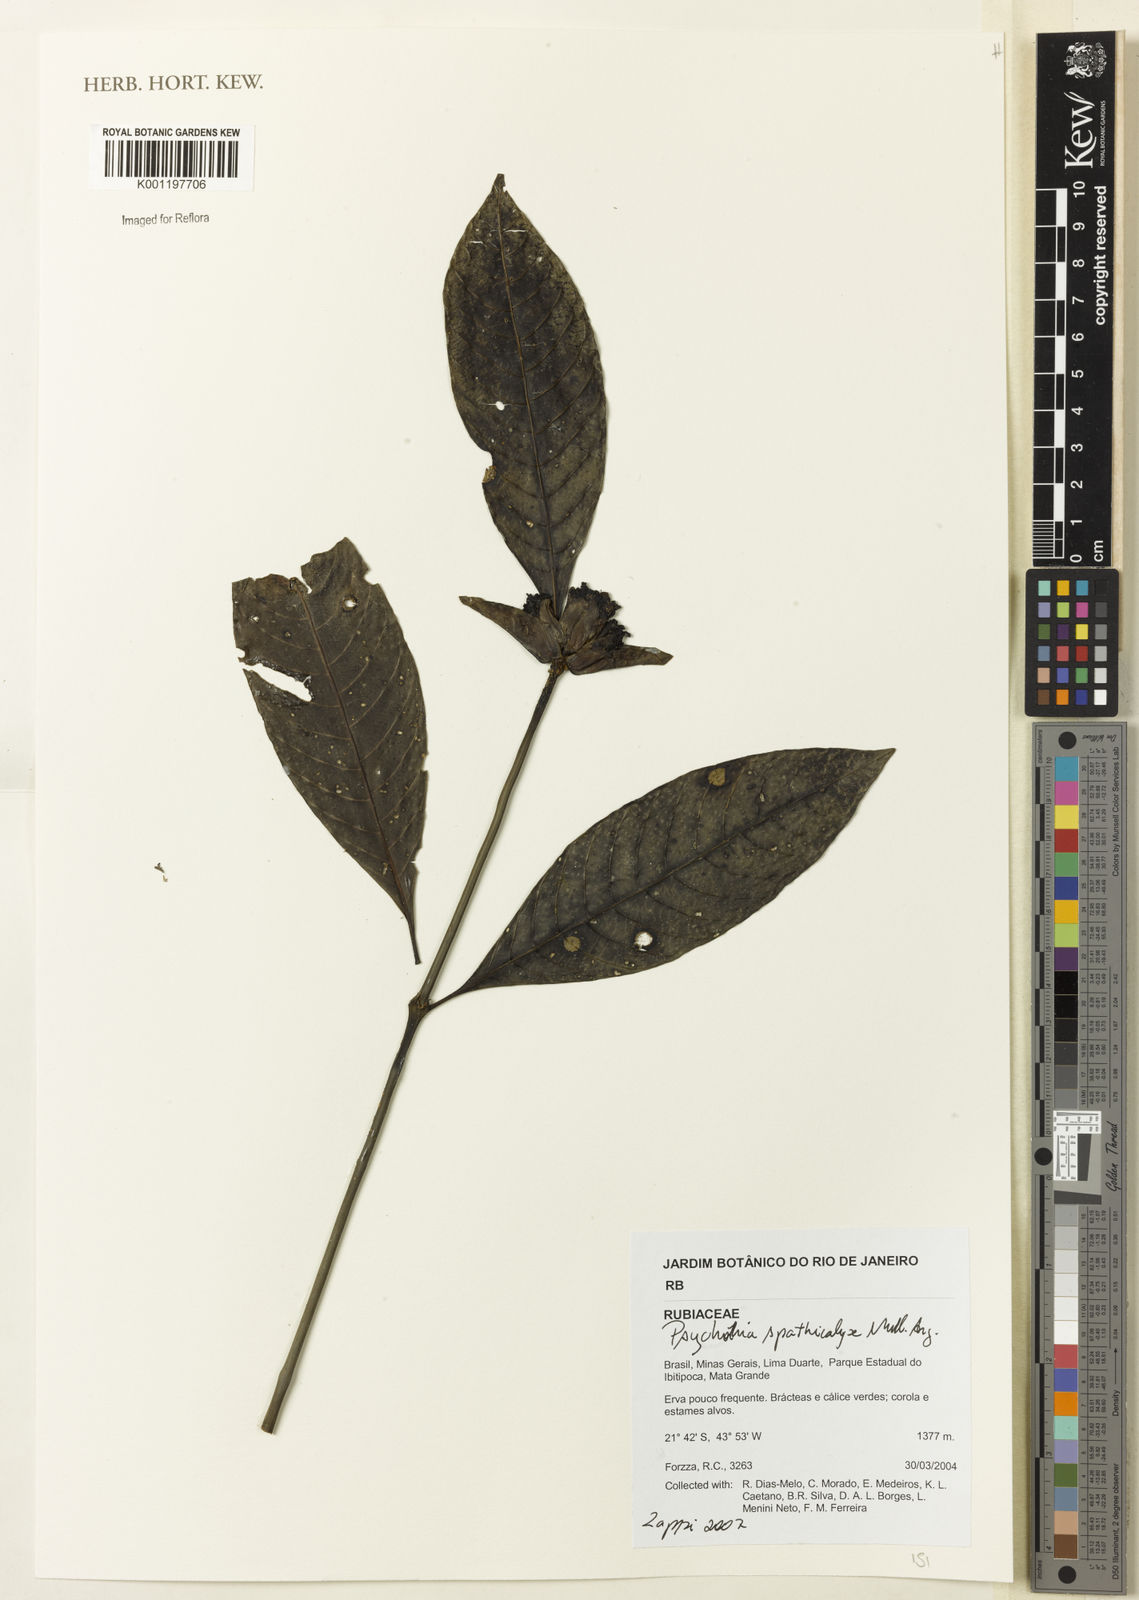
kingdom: Plantae
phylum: Tracheophyta
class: Magnoliopsida
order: Gentianales
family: Rubiaceae
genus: Psychotria
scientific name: Psychotria
